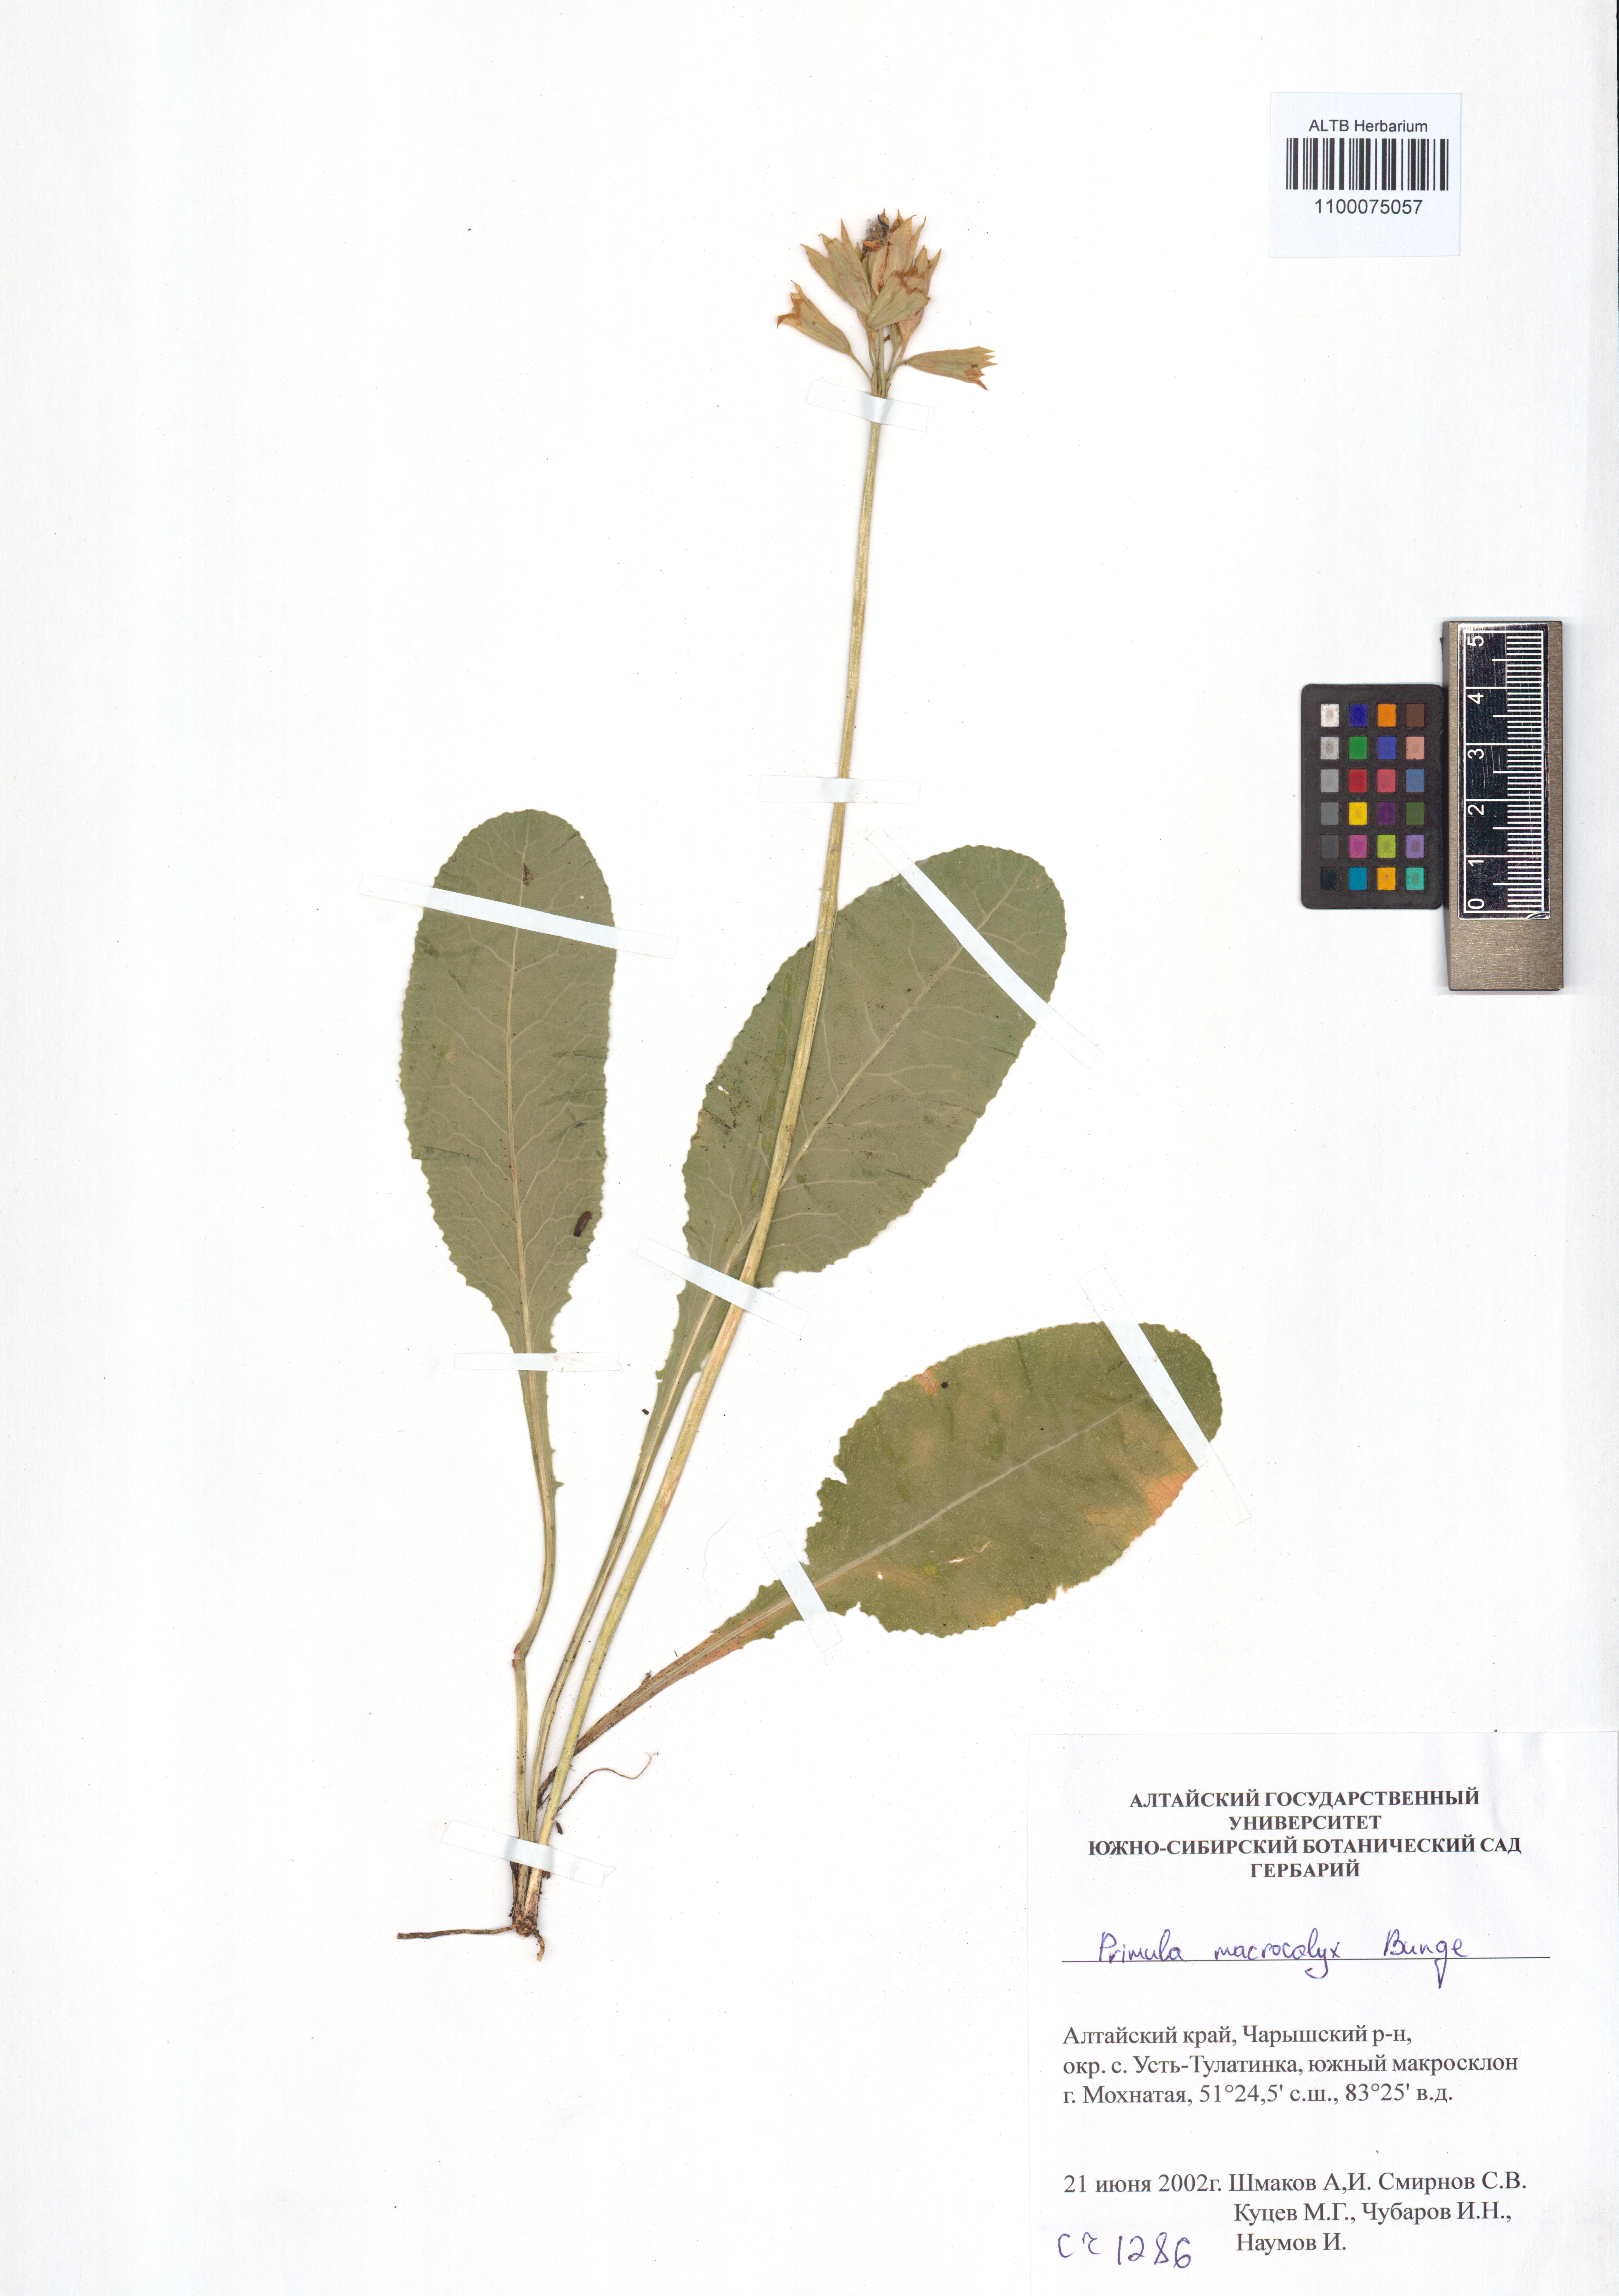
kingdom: Plantae
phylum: Tracheophyta
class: Magnoliopsida
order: Ericales
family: Primulaceae
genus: Primula
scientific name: Primula veris
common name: Cowslip
